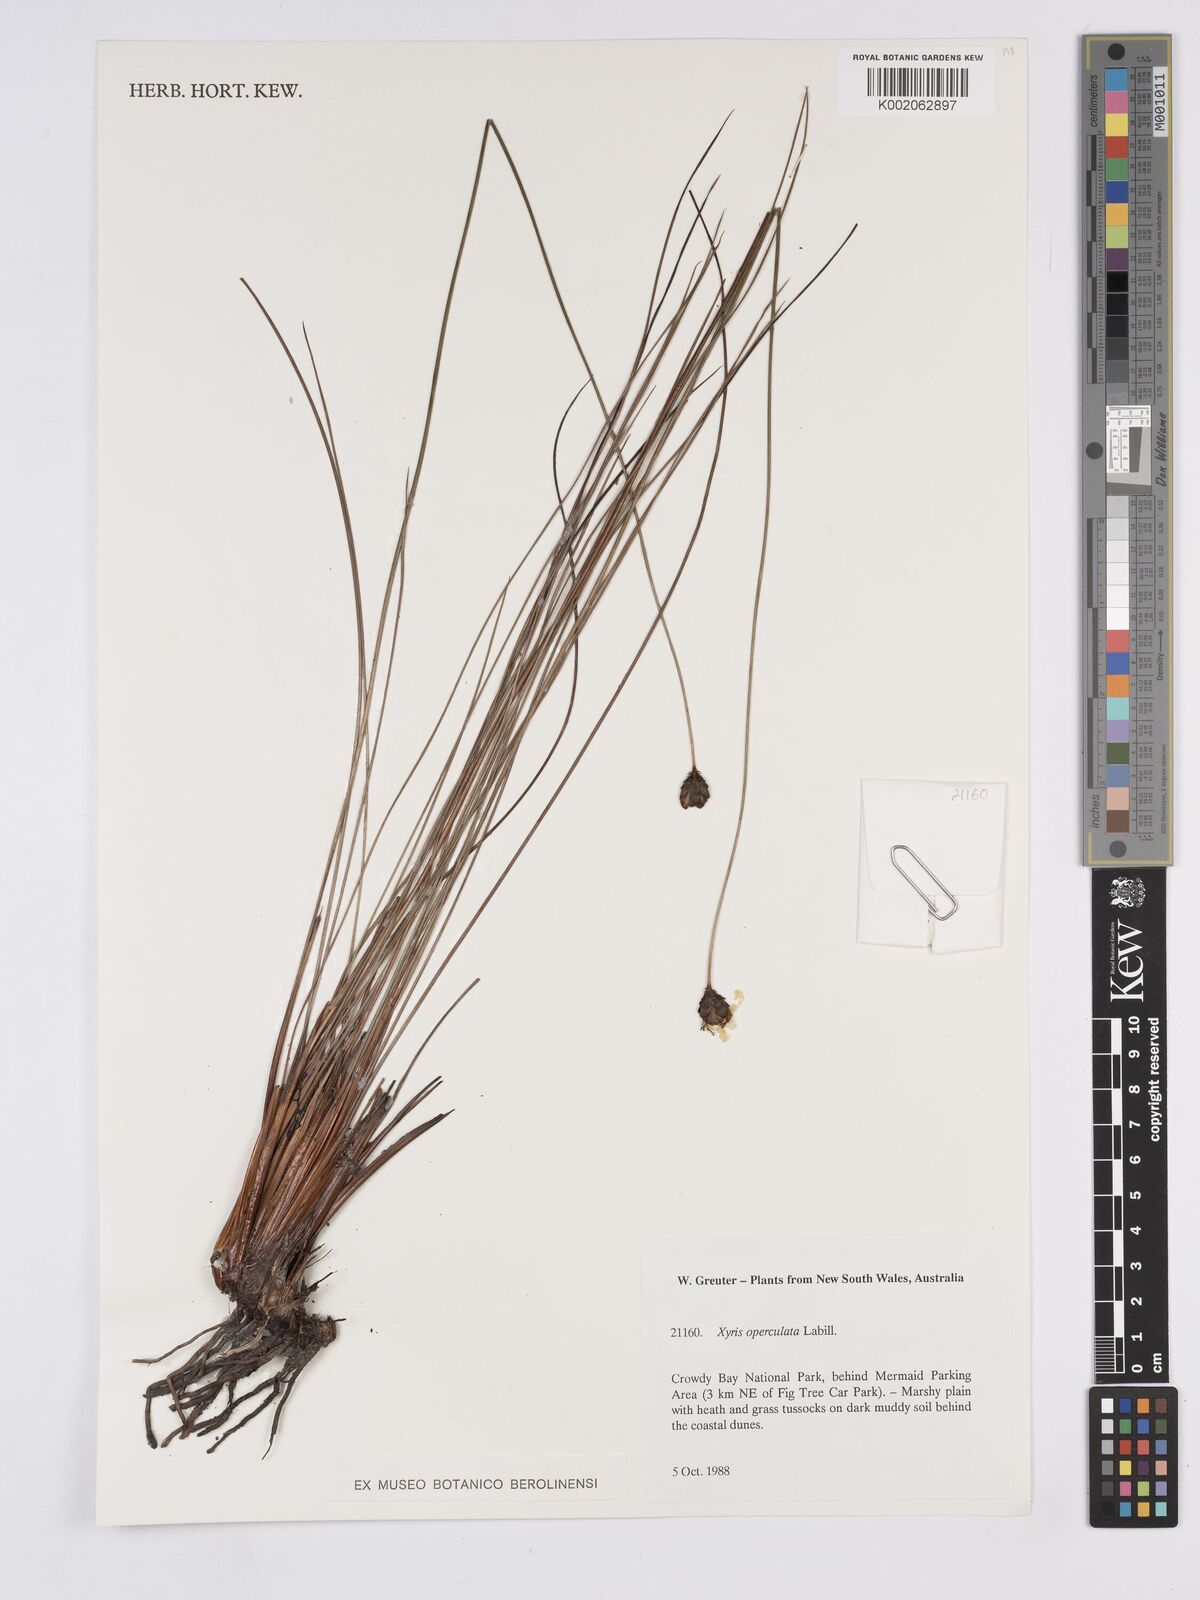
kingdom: Plantae
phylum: Tracheophyta
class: Liliopsida
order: Poales
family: Xyridaceae
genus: Xyris
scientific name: Xyris operculata
